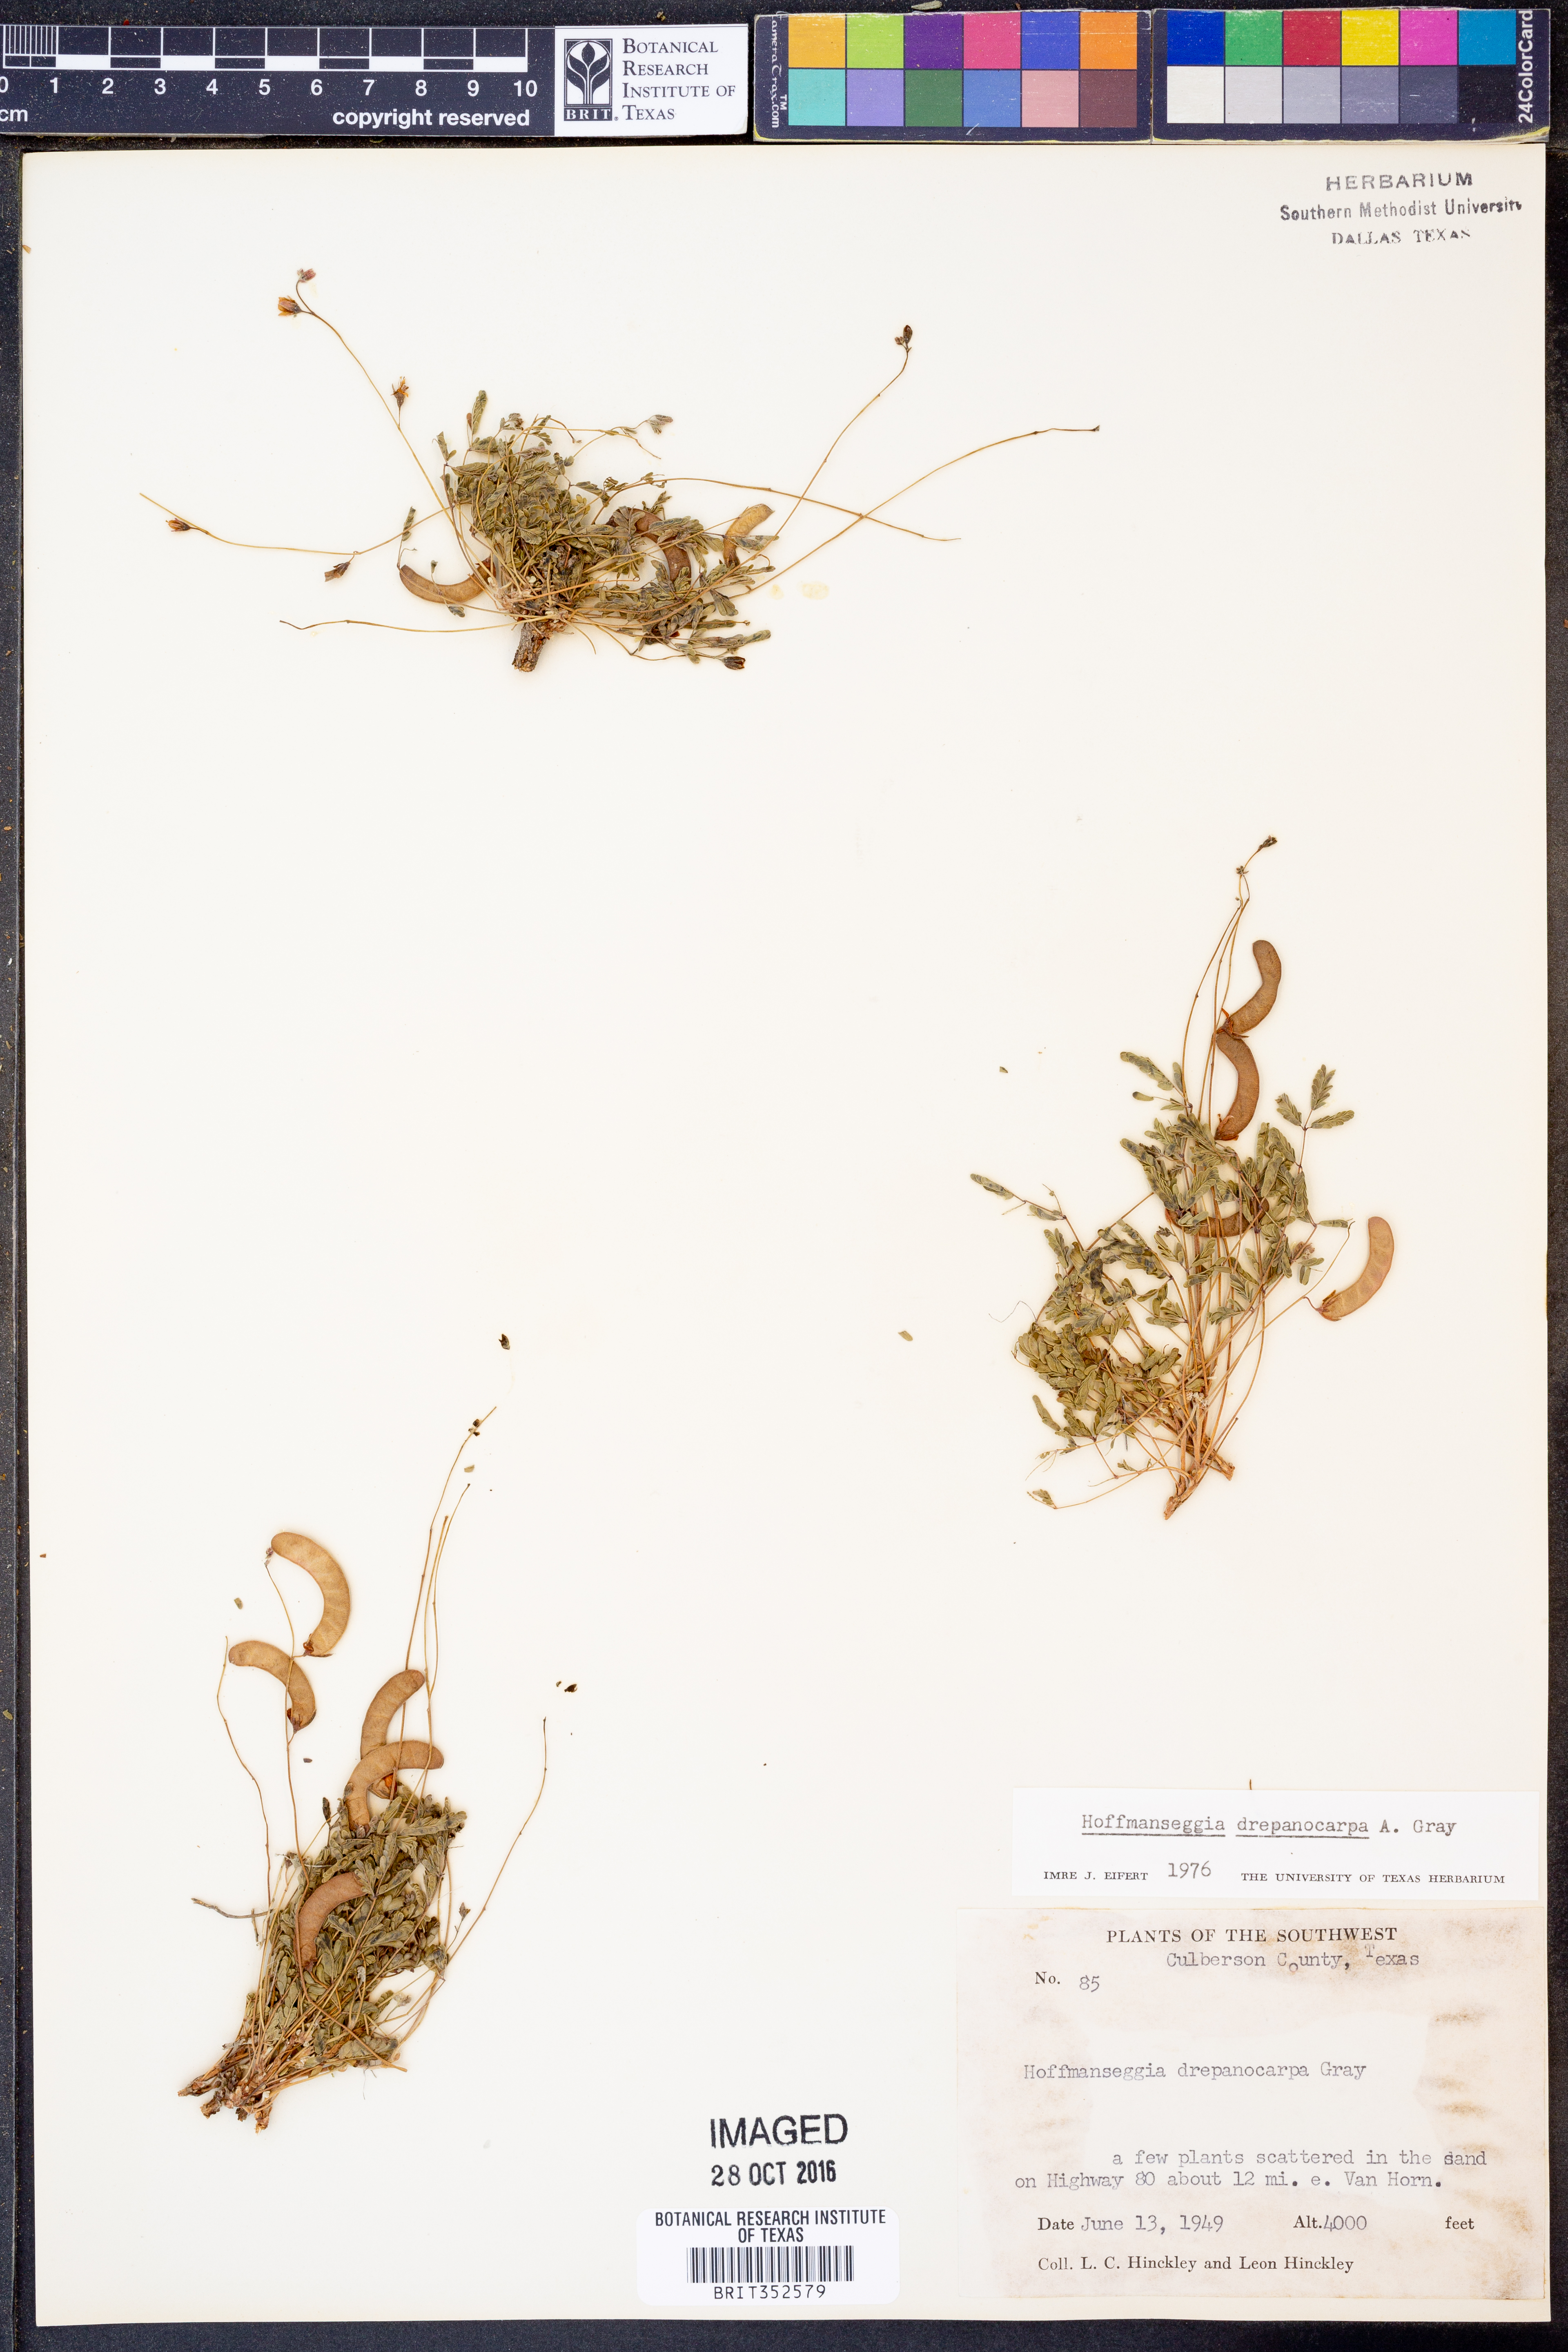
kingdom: Plantae
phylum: Tracheophyta
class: Magnoliopsida
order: Fabales
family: Fabaceae
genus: Hoffmannseggia
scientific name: Hoffmannseggia drepanocarpa
